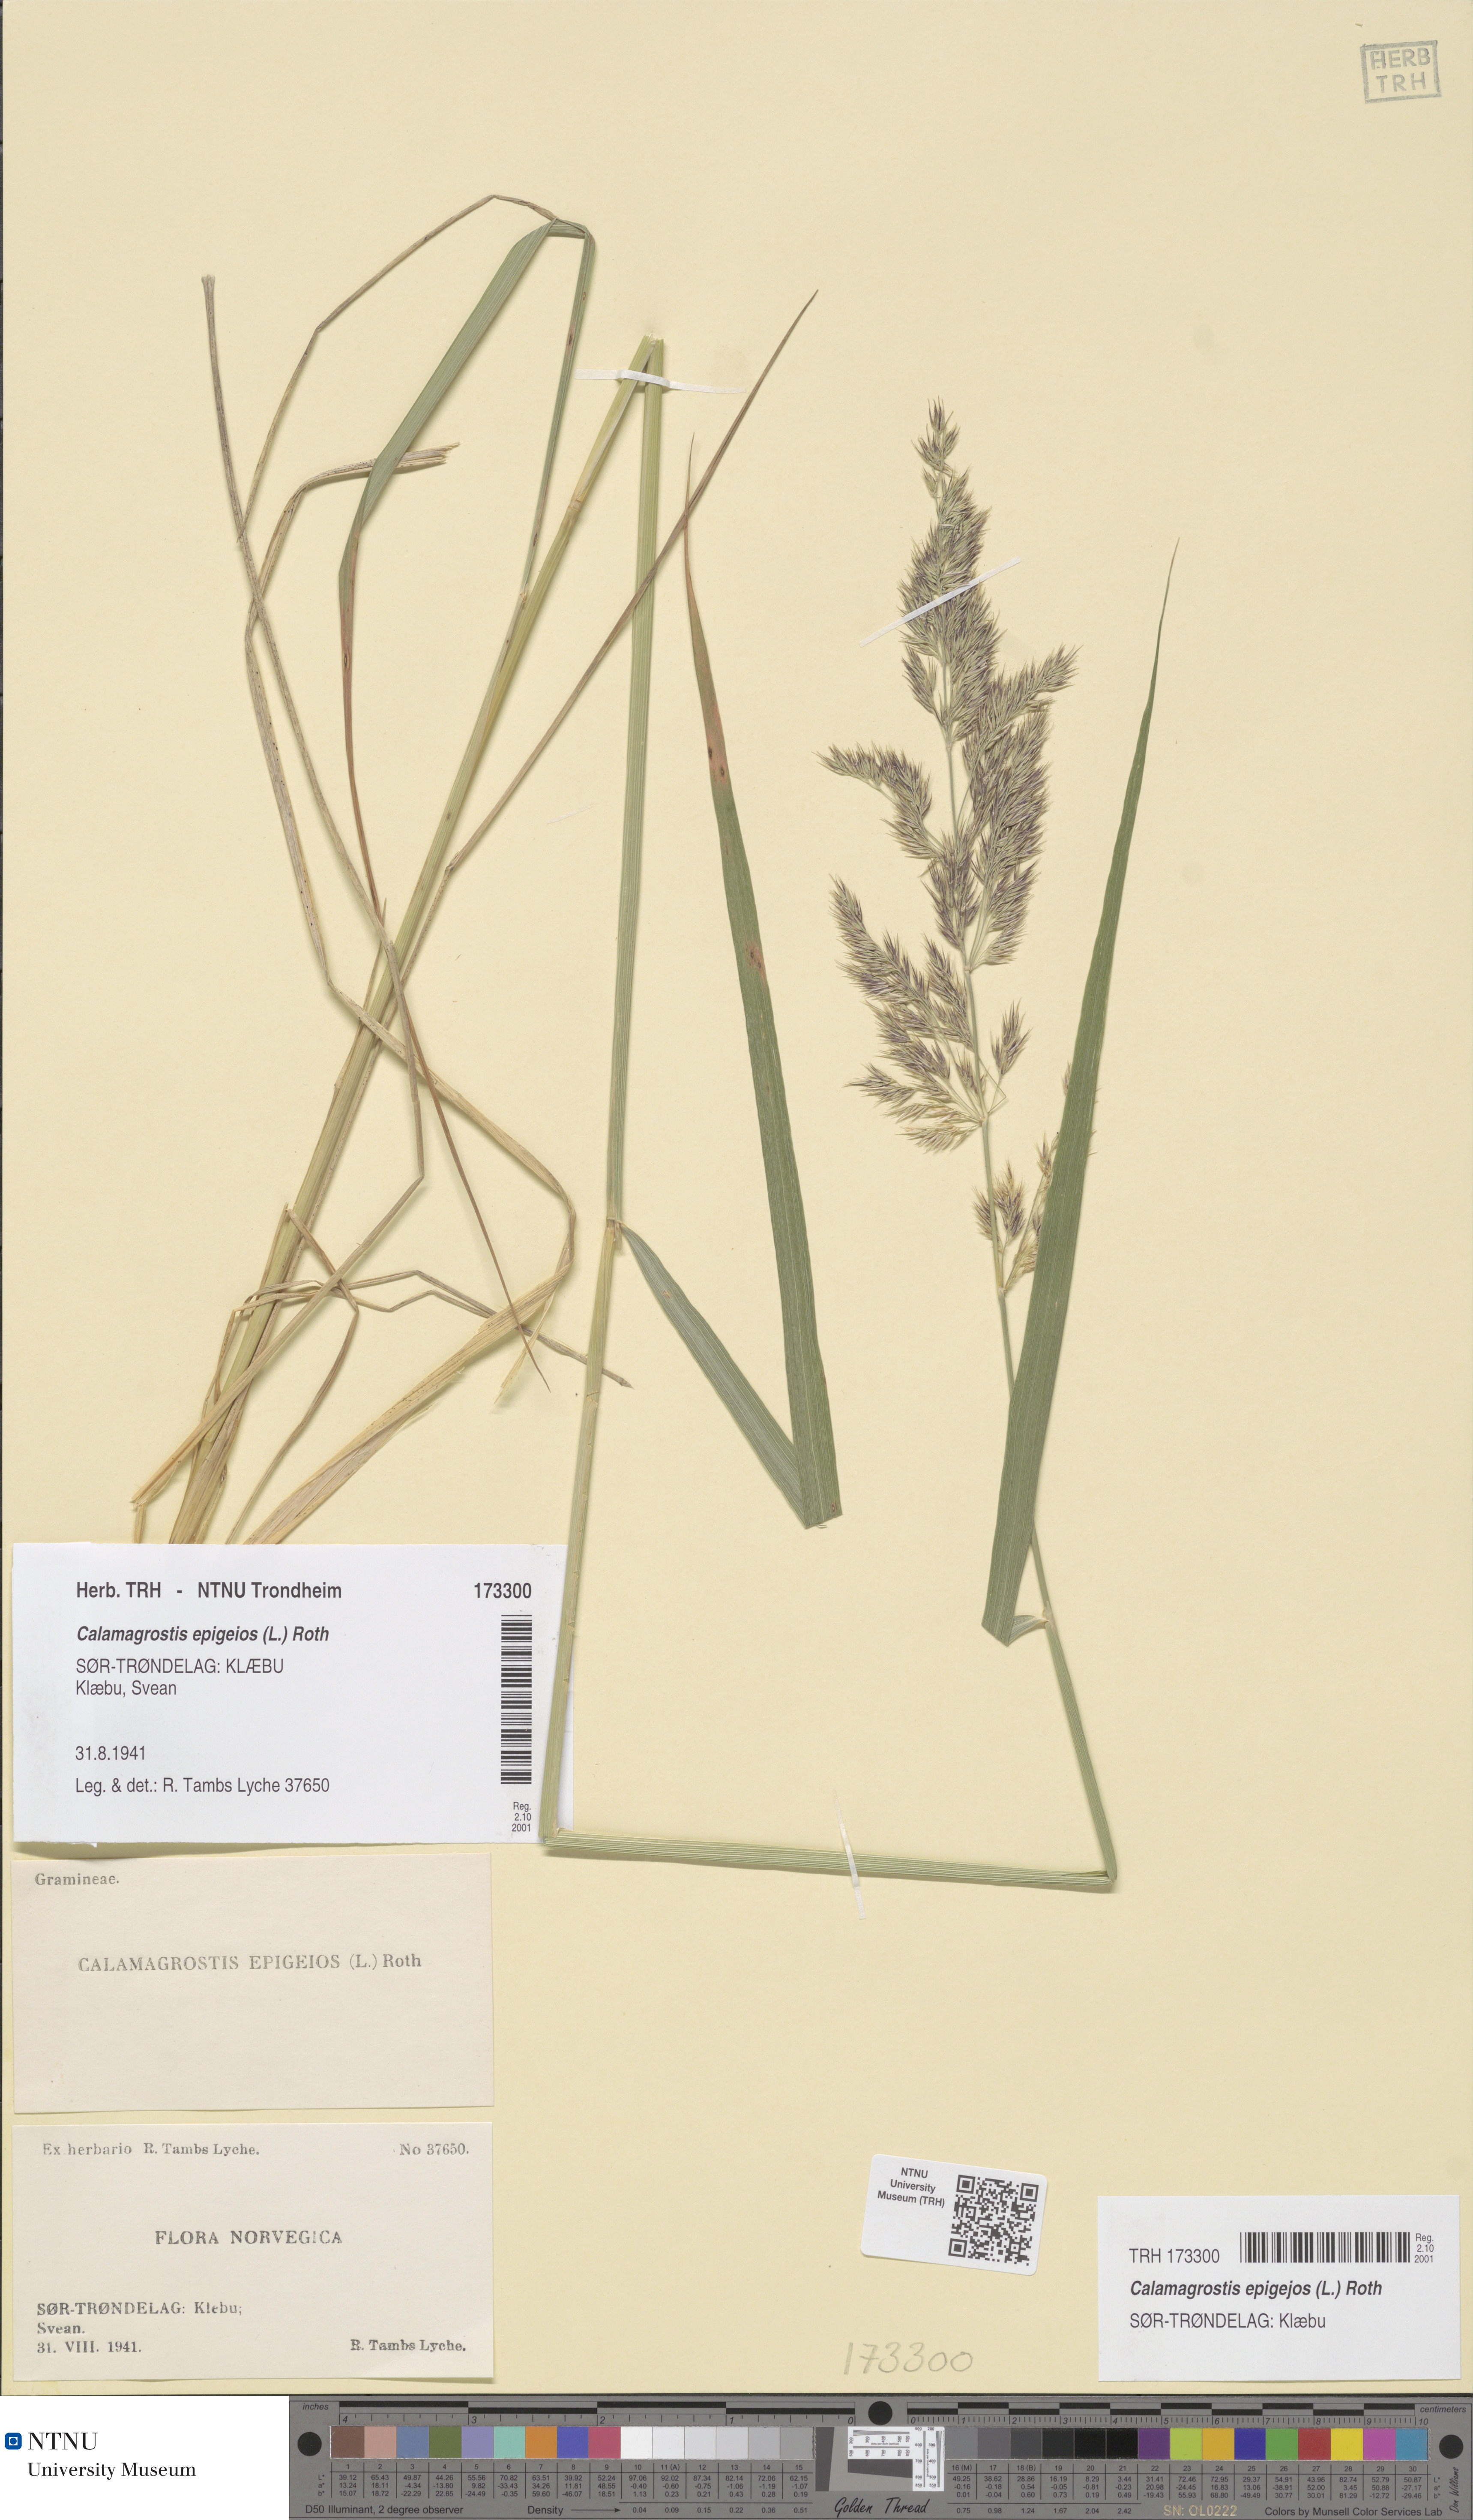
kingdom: Plantae
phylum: Tracheophyta
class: Liliopsida
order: Poales
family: Poaceae
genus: Calamagrostis
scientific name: Calamagrostis epigejos
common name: Wood small-reed
